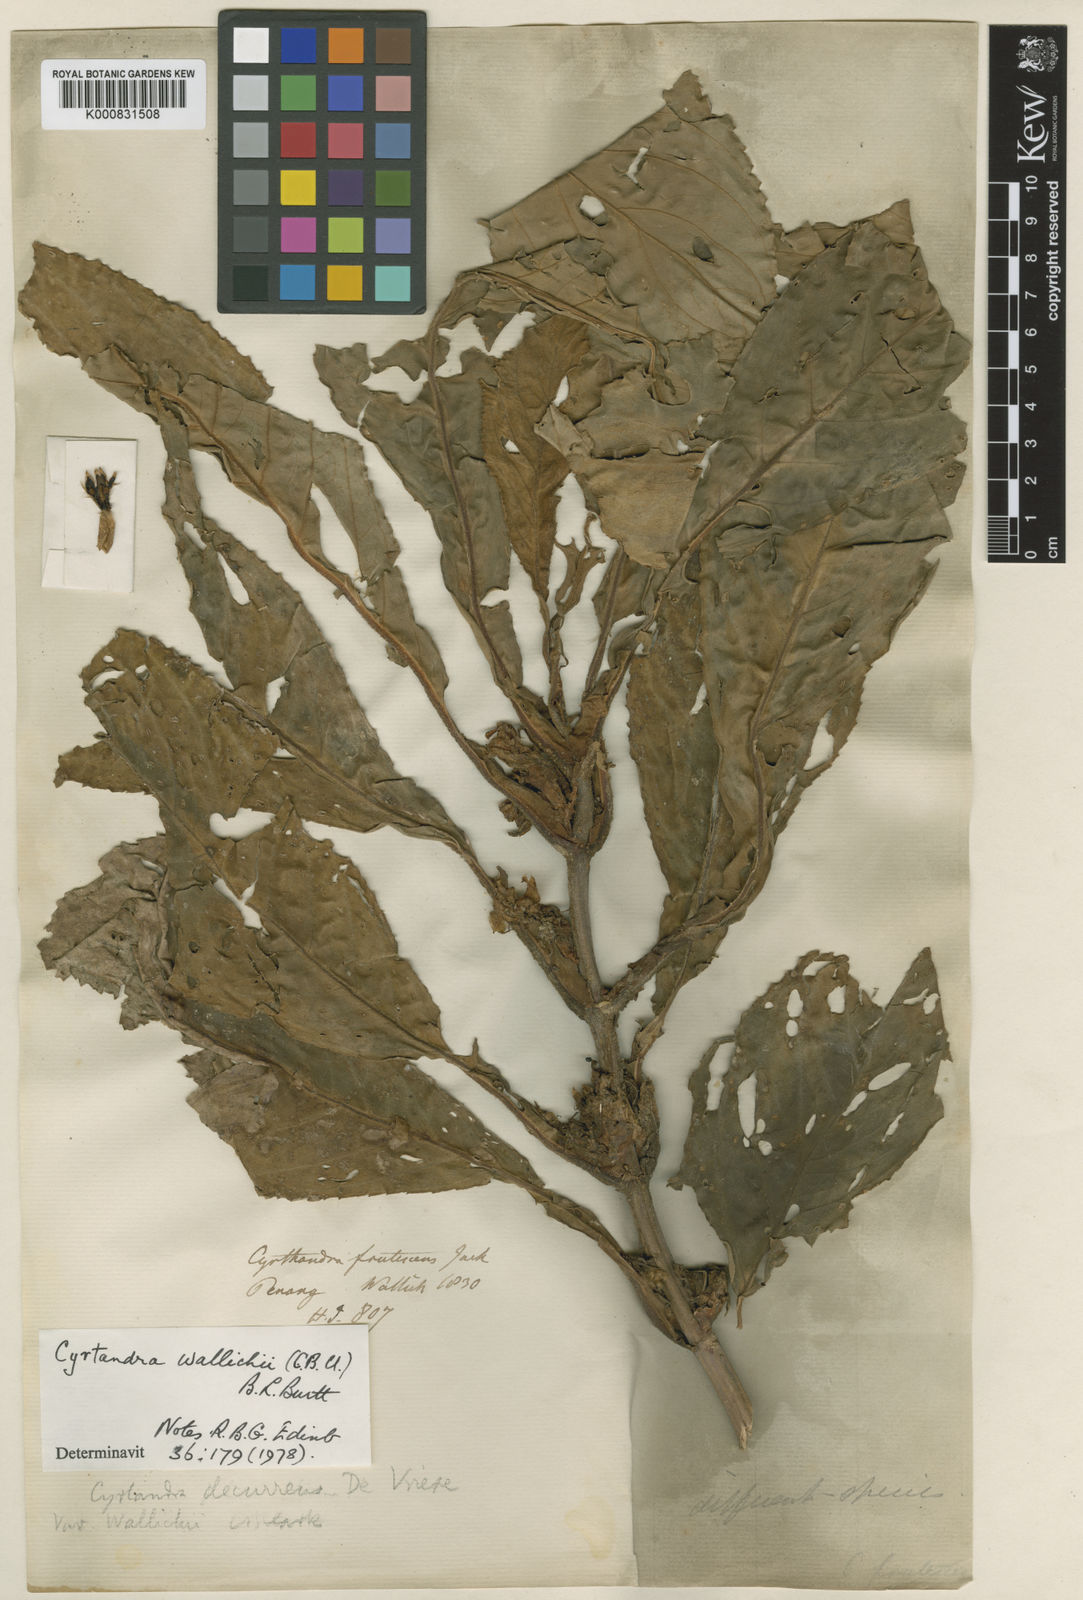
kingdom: Plantae
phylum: Tracheophyta
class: Magnoliopsida
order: Lamiales
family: Gesneriaceae
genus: Cyrtandra
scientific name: Cyrtandra wallichii
